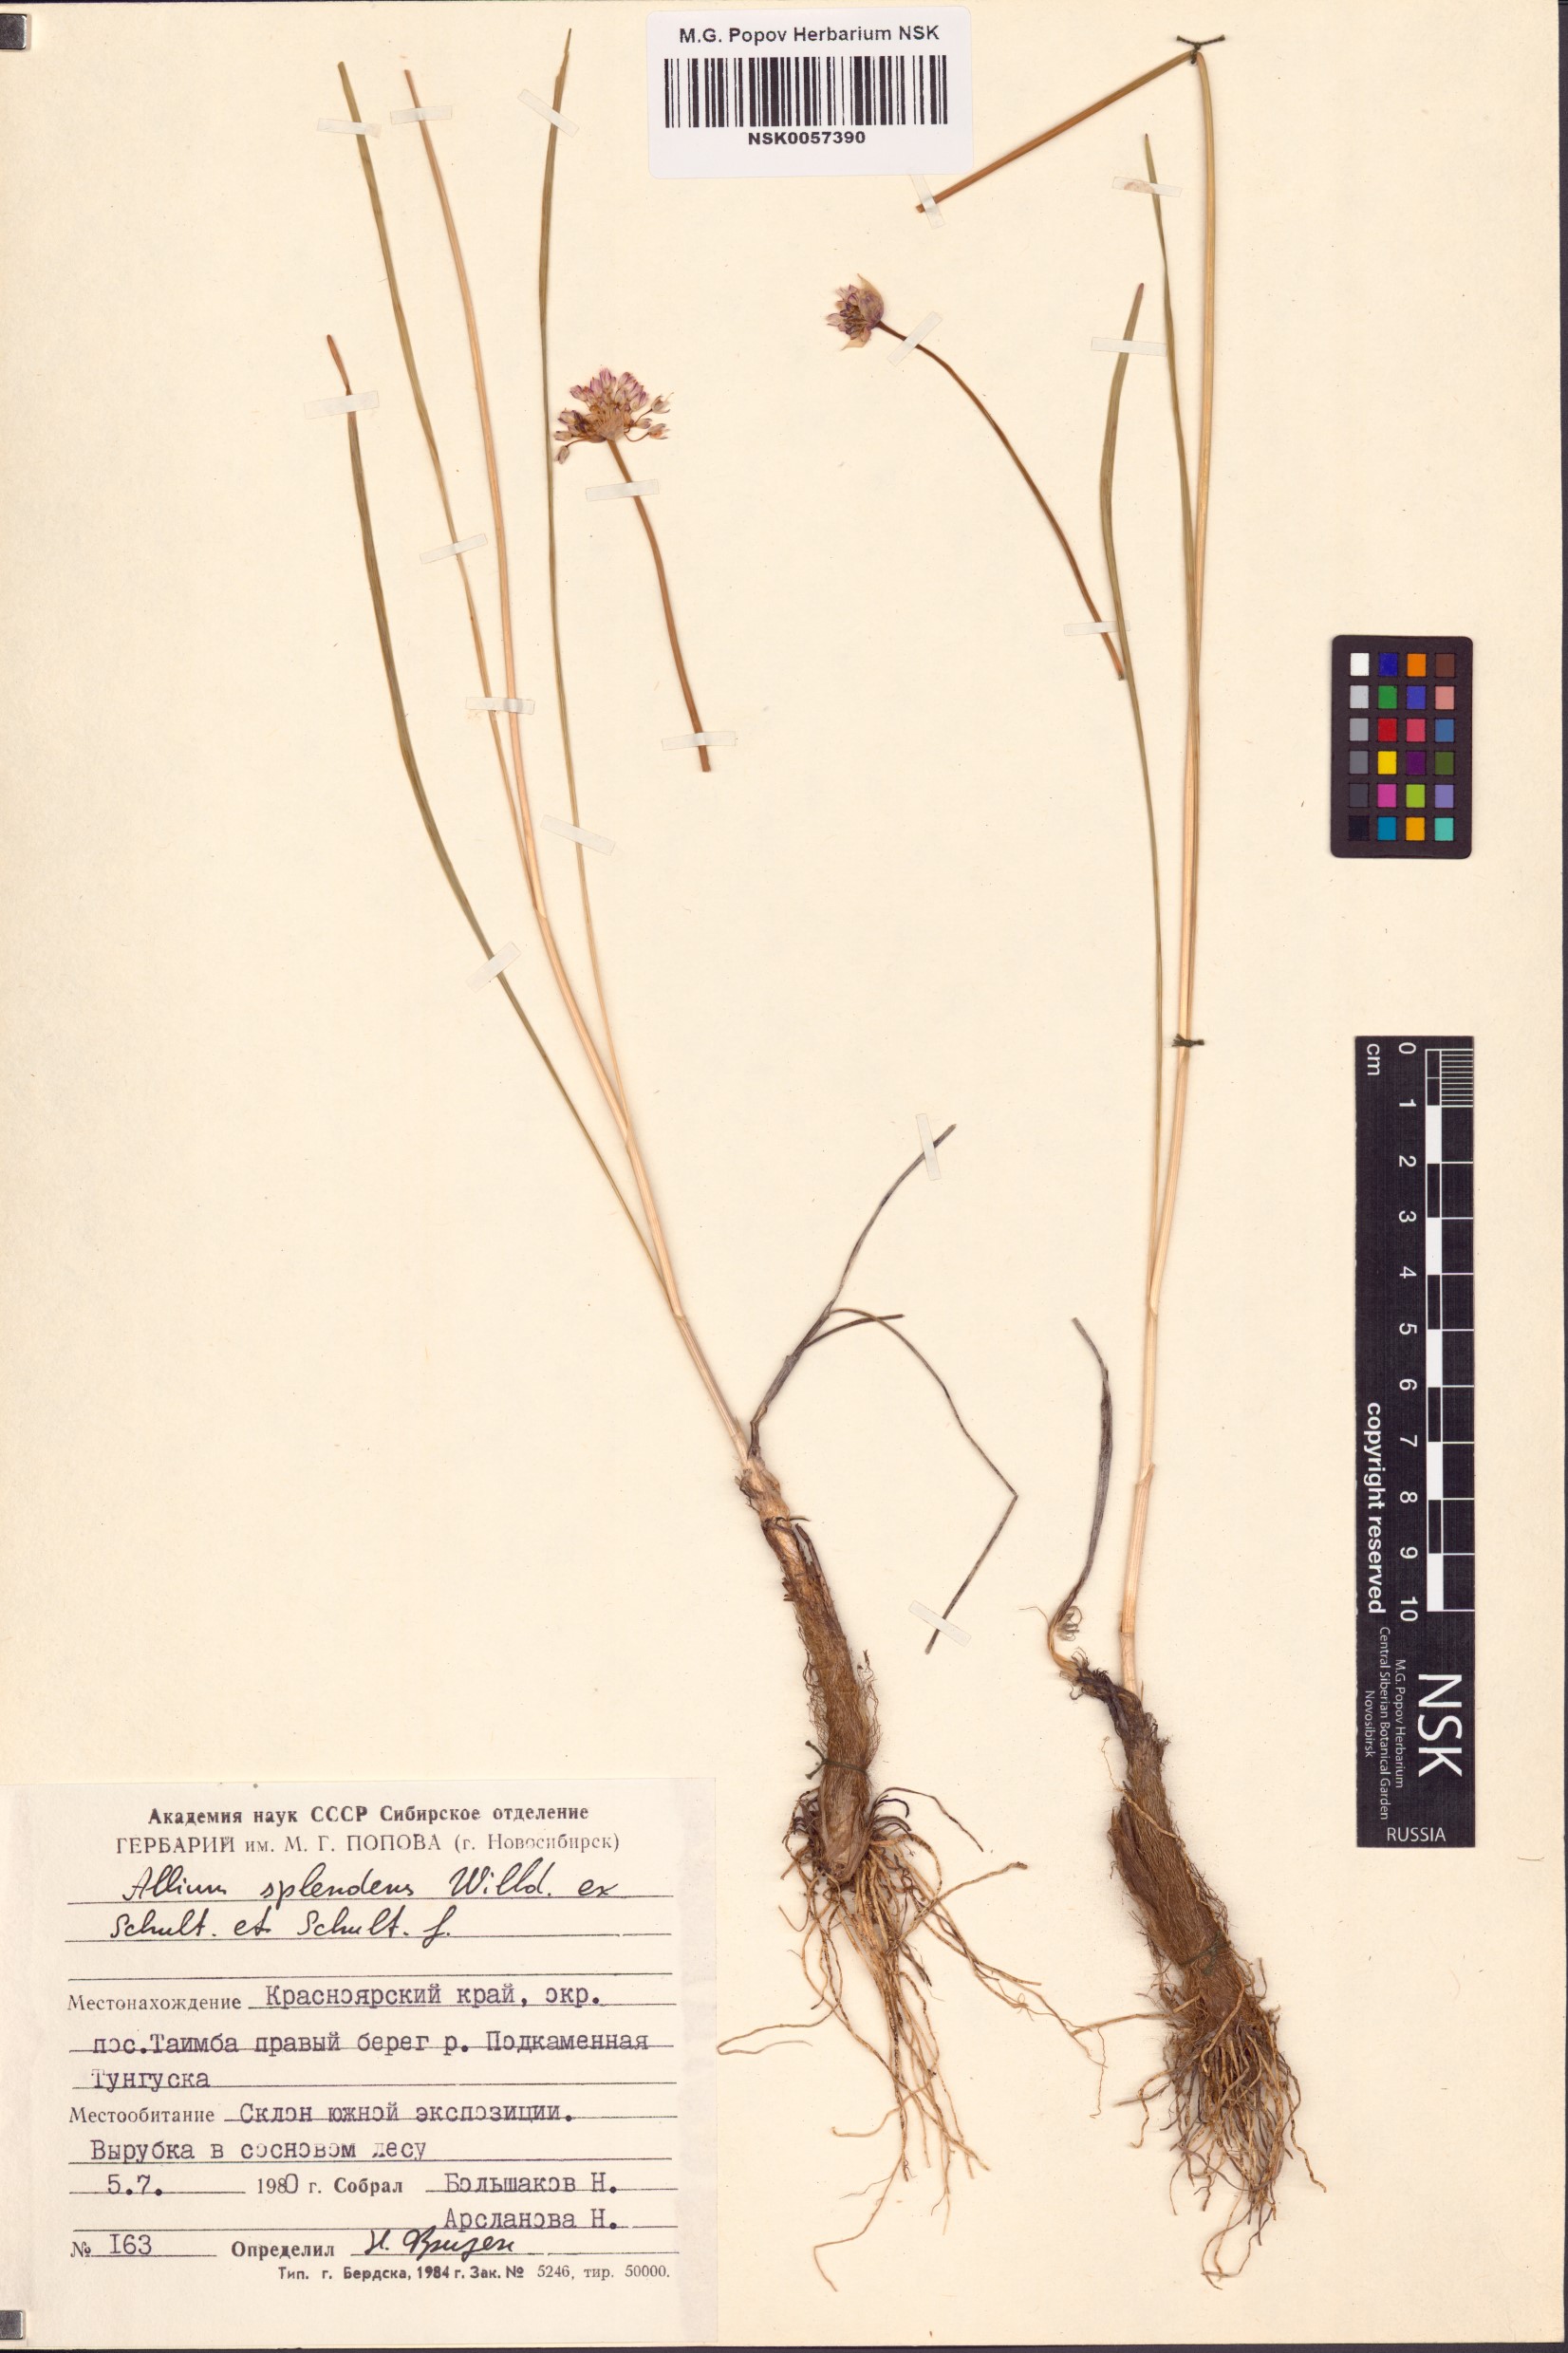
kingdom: Plantae
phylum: Tracheophyta
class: Liliopsida
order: Asparagales
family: Amaryllidaceae
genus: Allium
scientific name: Allium splendens
